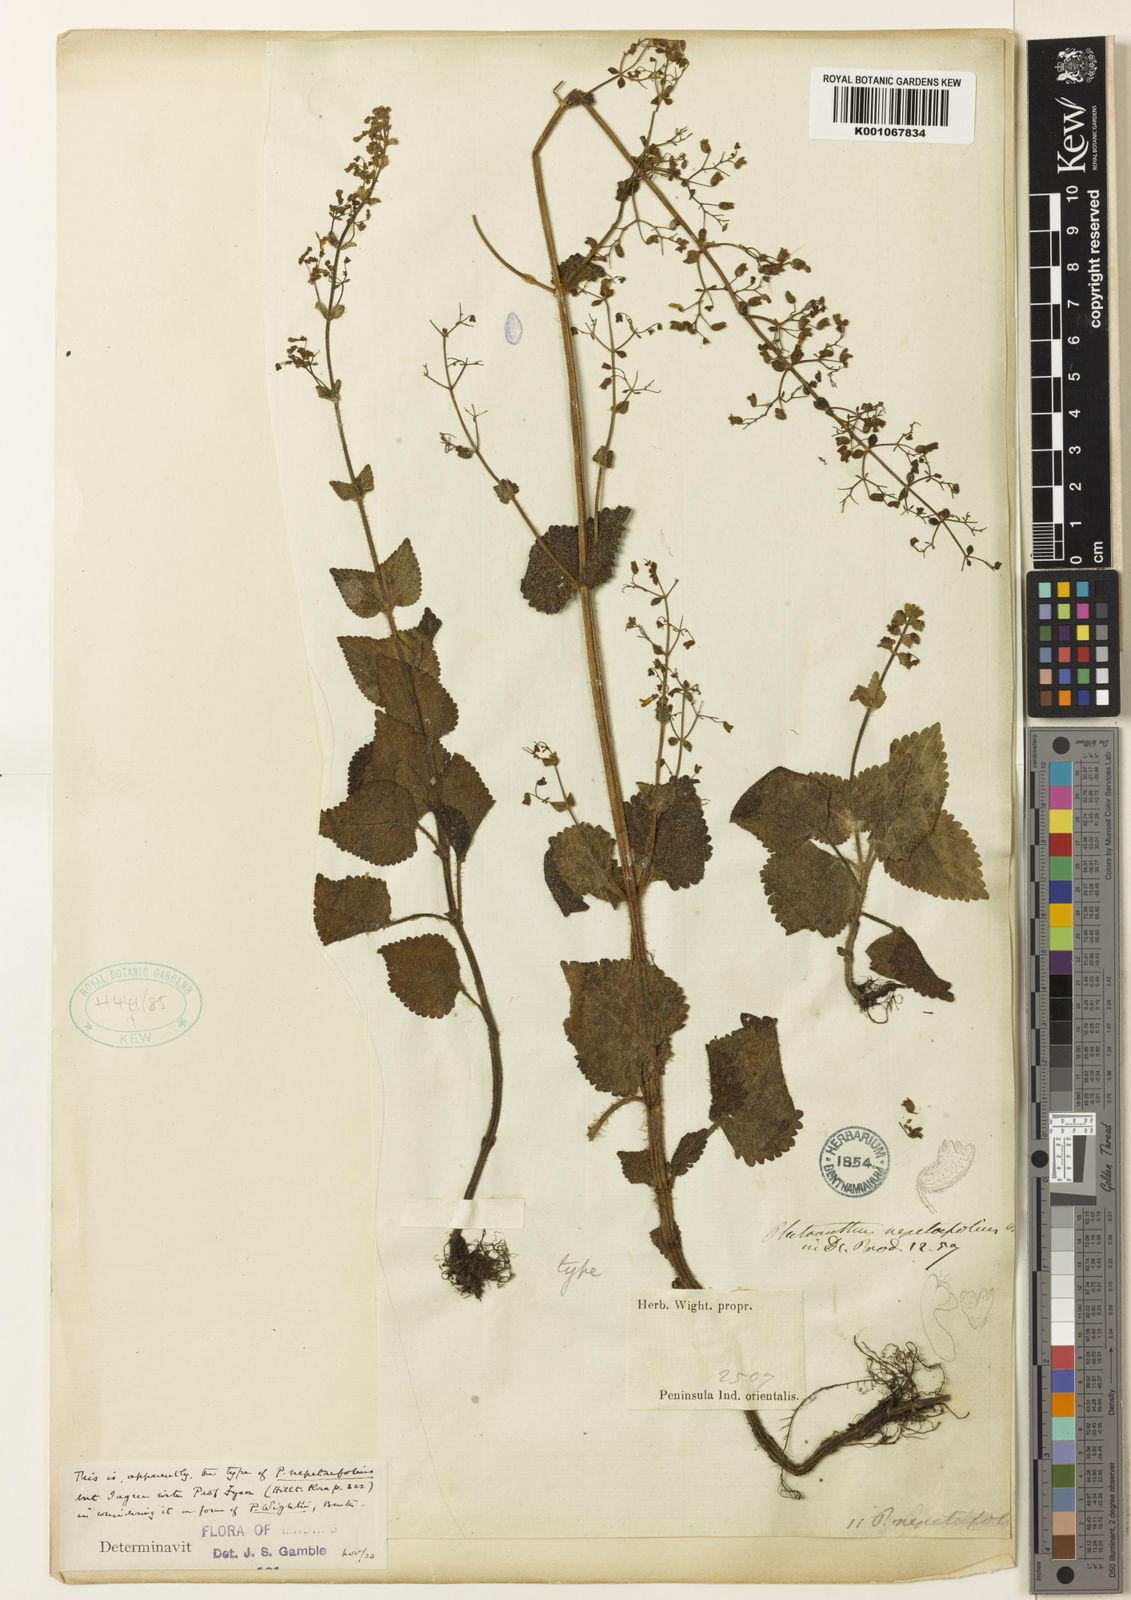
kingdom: Plantae
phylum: Tracheophyta
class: Magnoliopsida
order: Lamiales
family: Lamiaceae
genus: Isodon
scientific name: Isodon wightii
